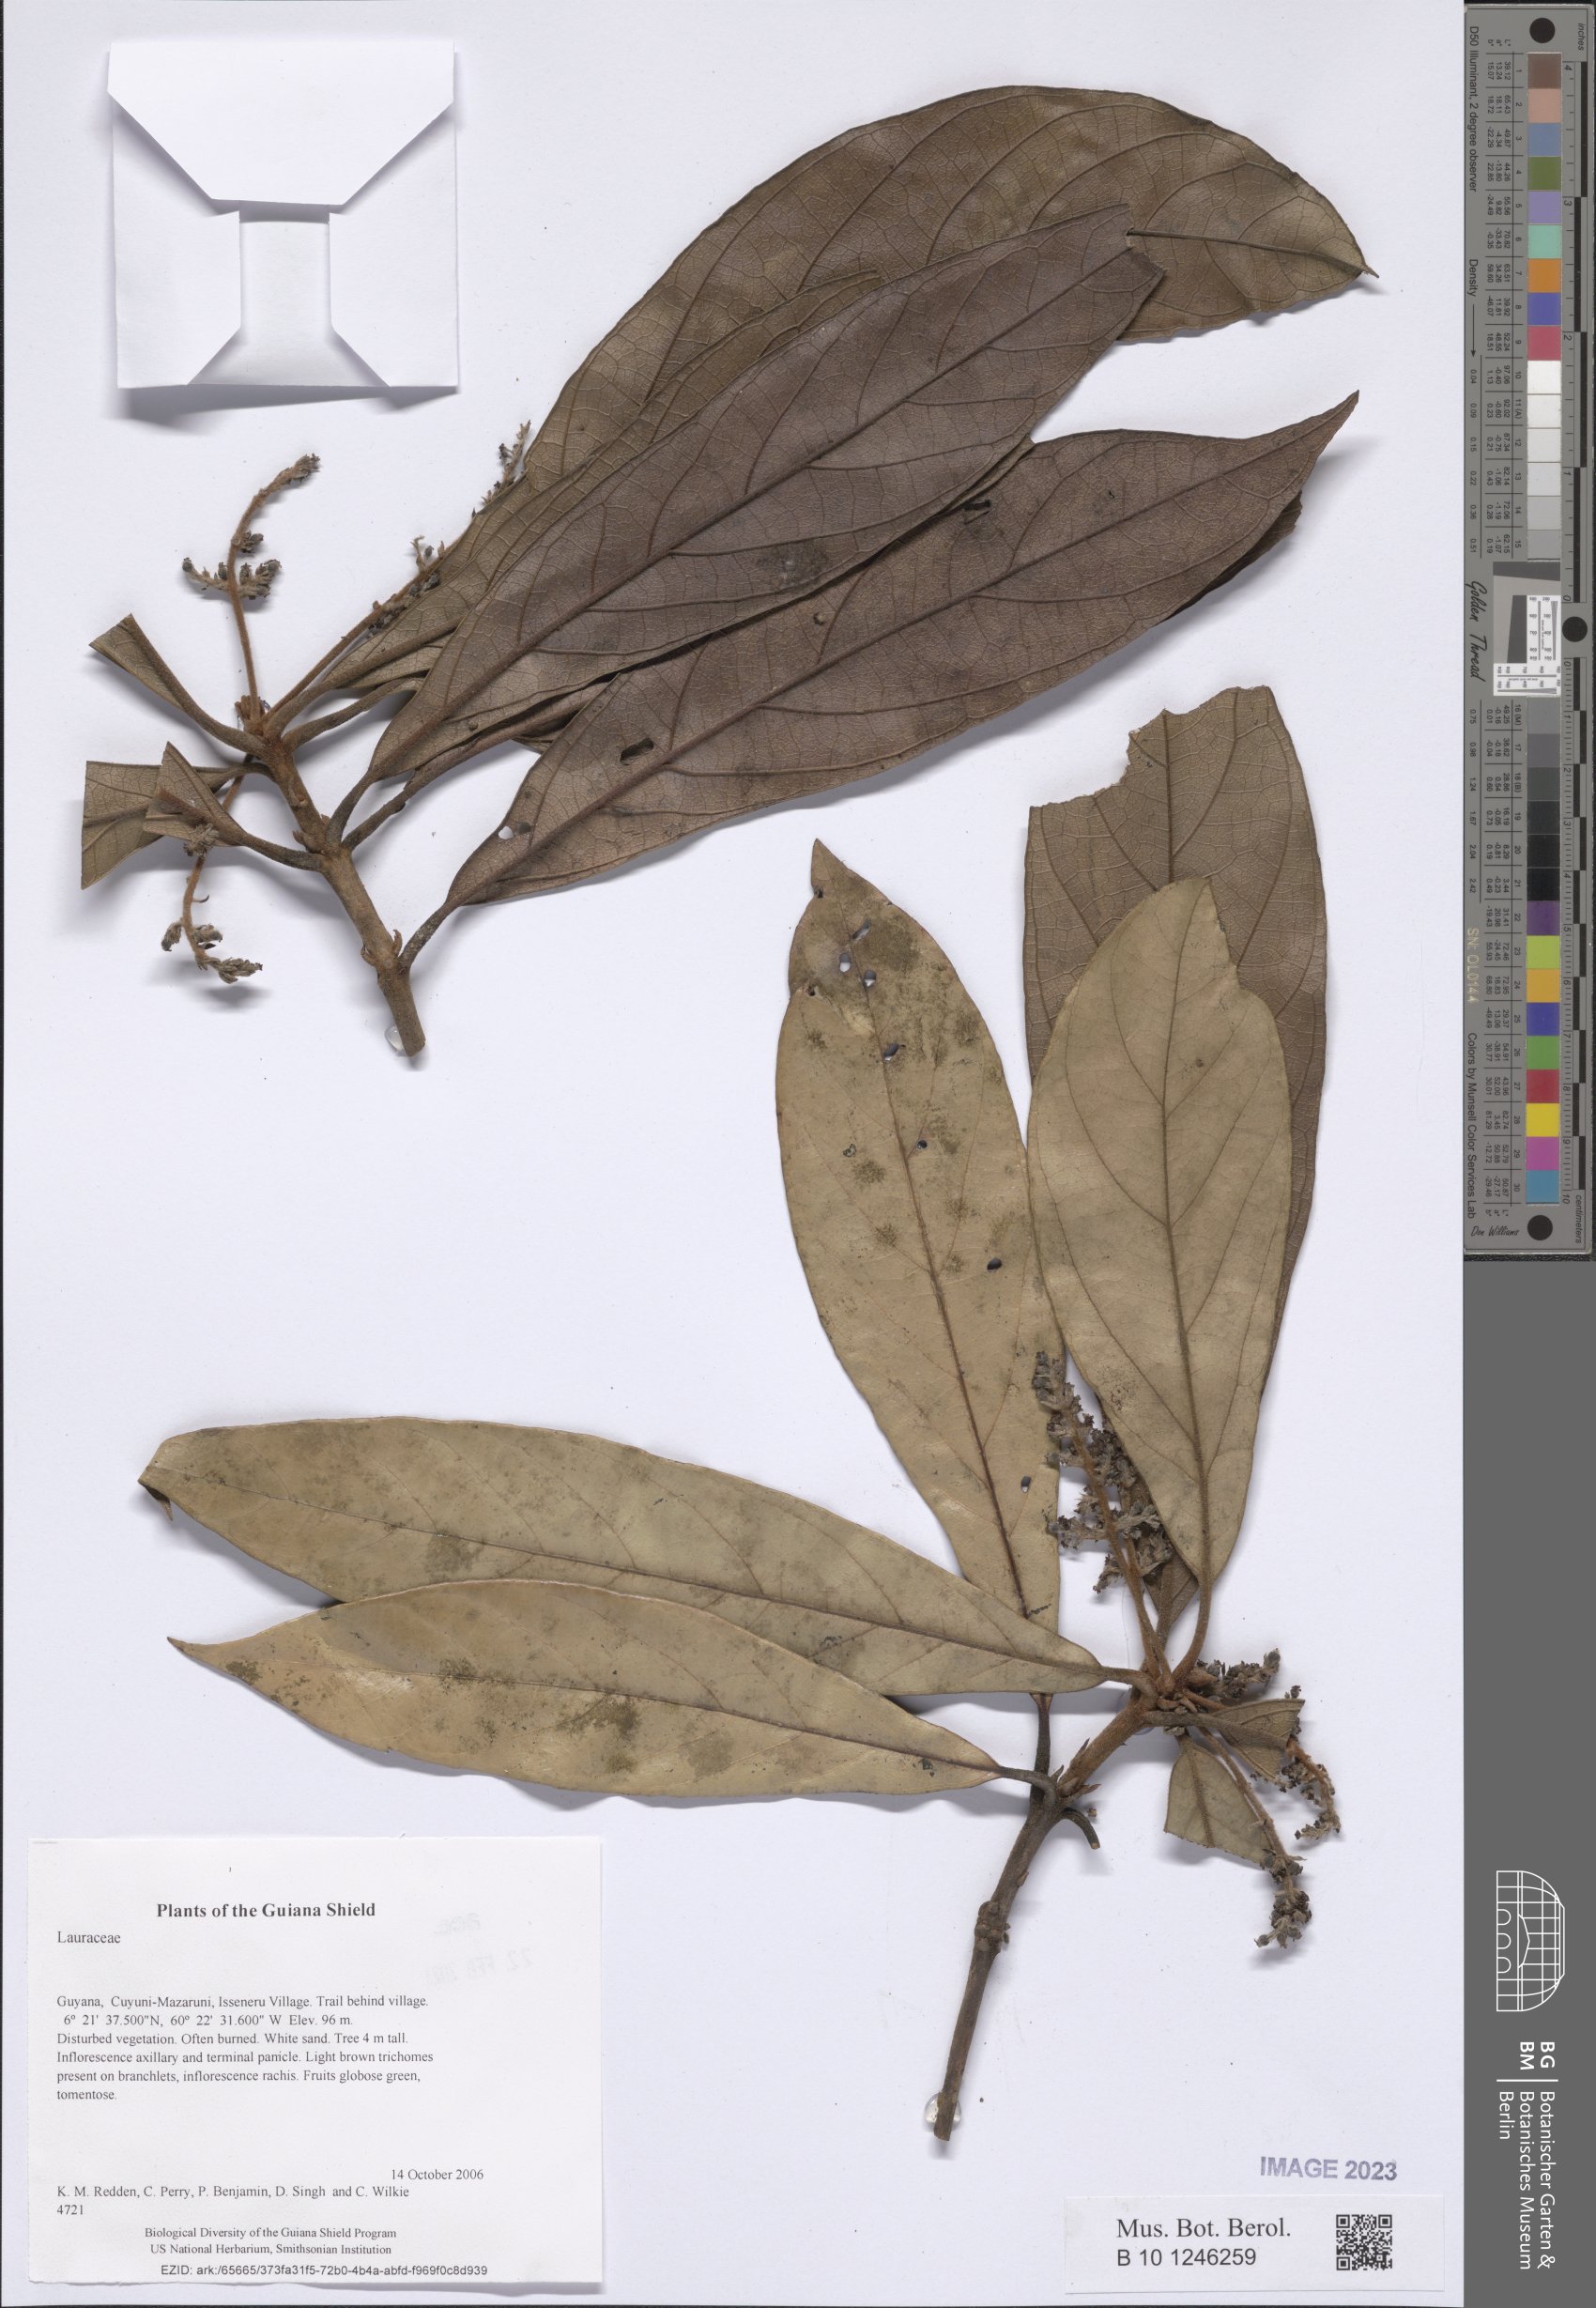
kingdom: Plantae
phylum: Tracheophyta
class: Magnoliopsida
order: Laurales
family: Lauraceae
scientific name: Lauraceae
